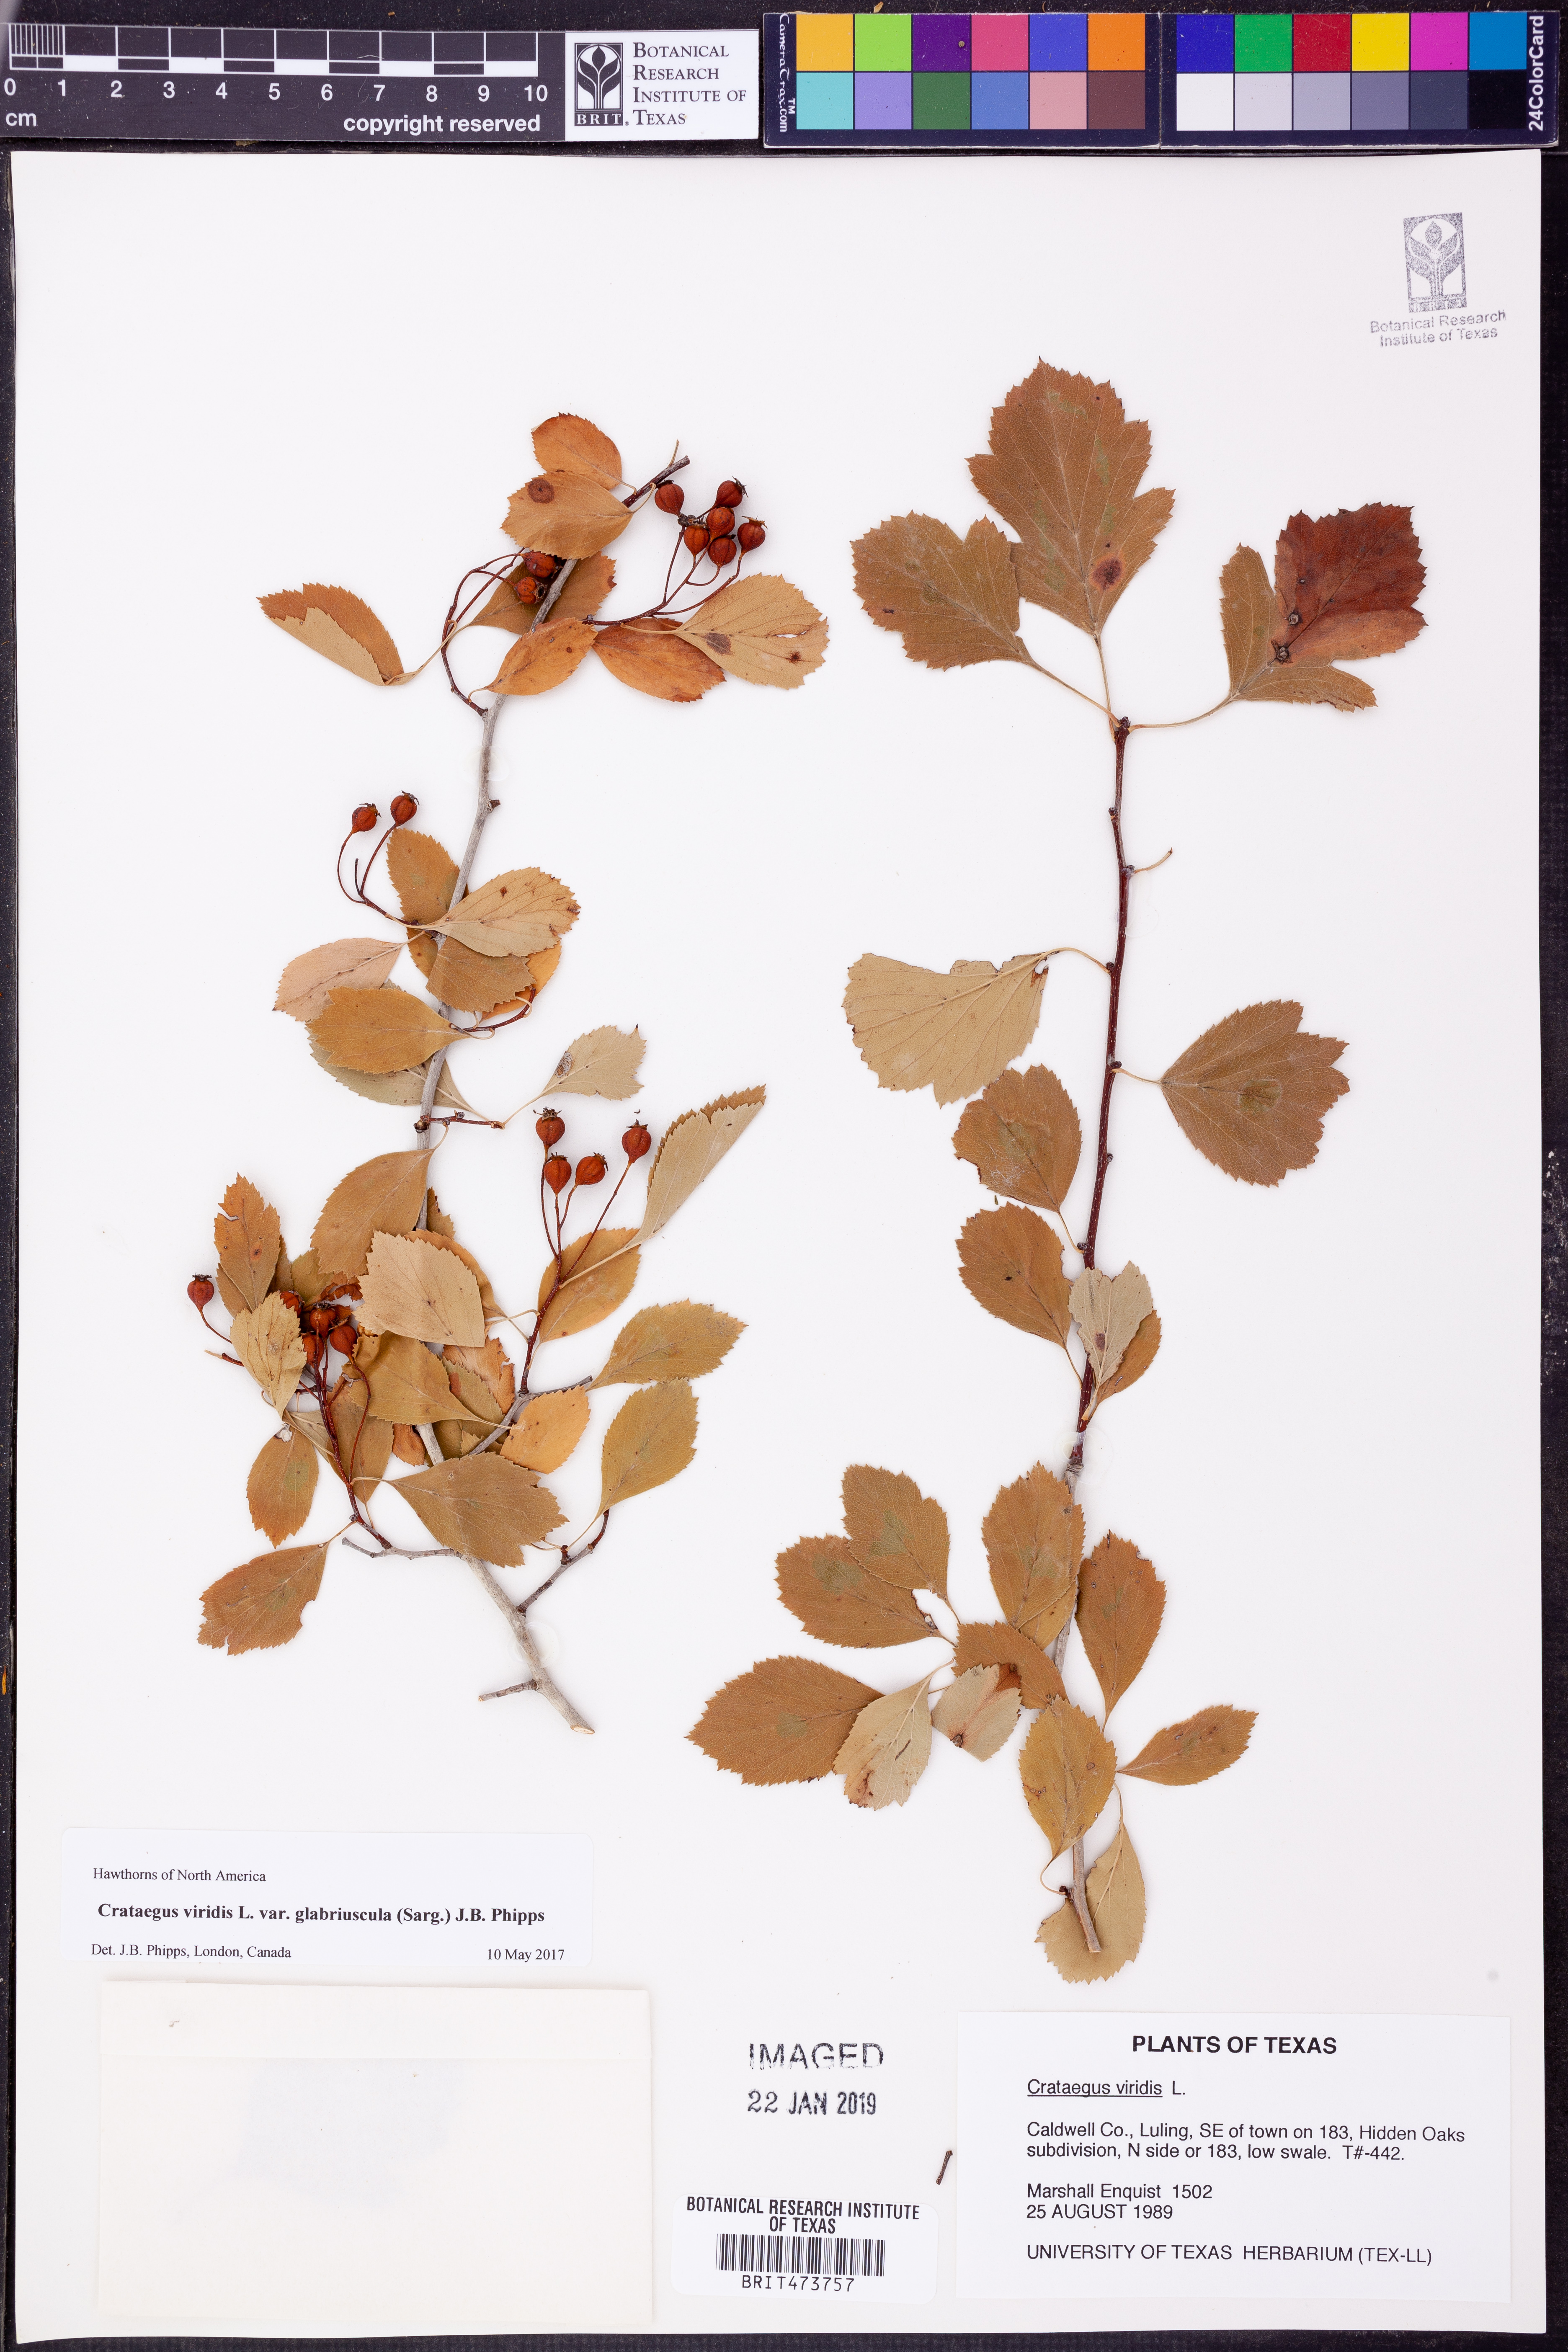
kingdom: Plantae
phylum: Tracheophyta
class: Magnoliopsida
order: Rosales
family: Rosaceae
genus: Crataegus
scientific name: Crataegus viridis
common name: Southernthorn
